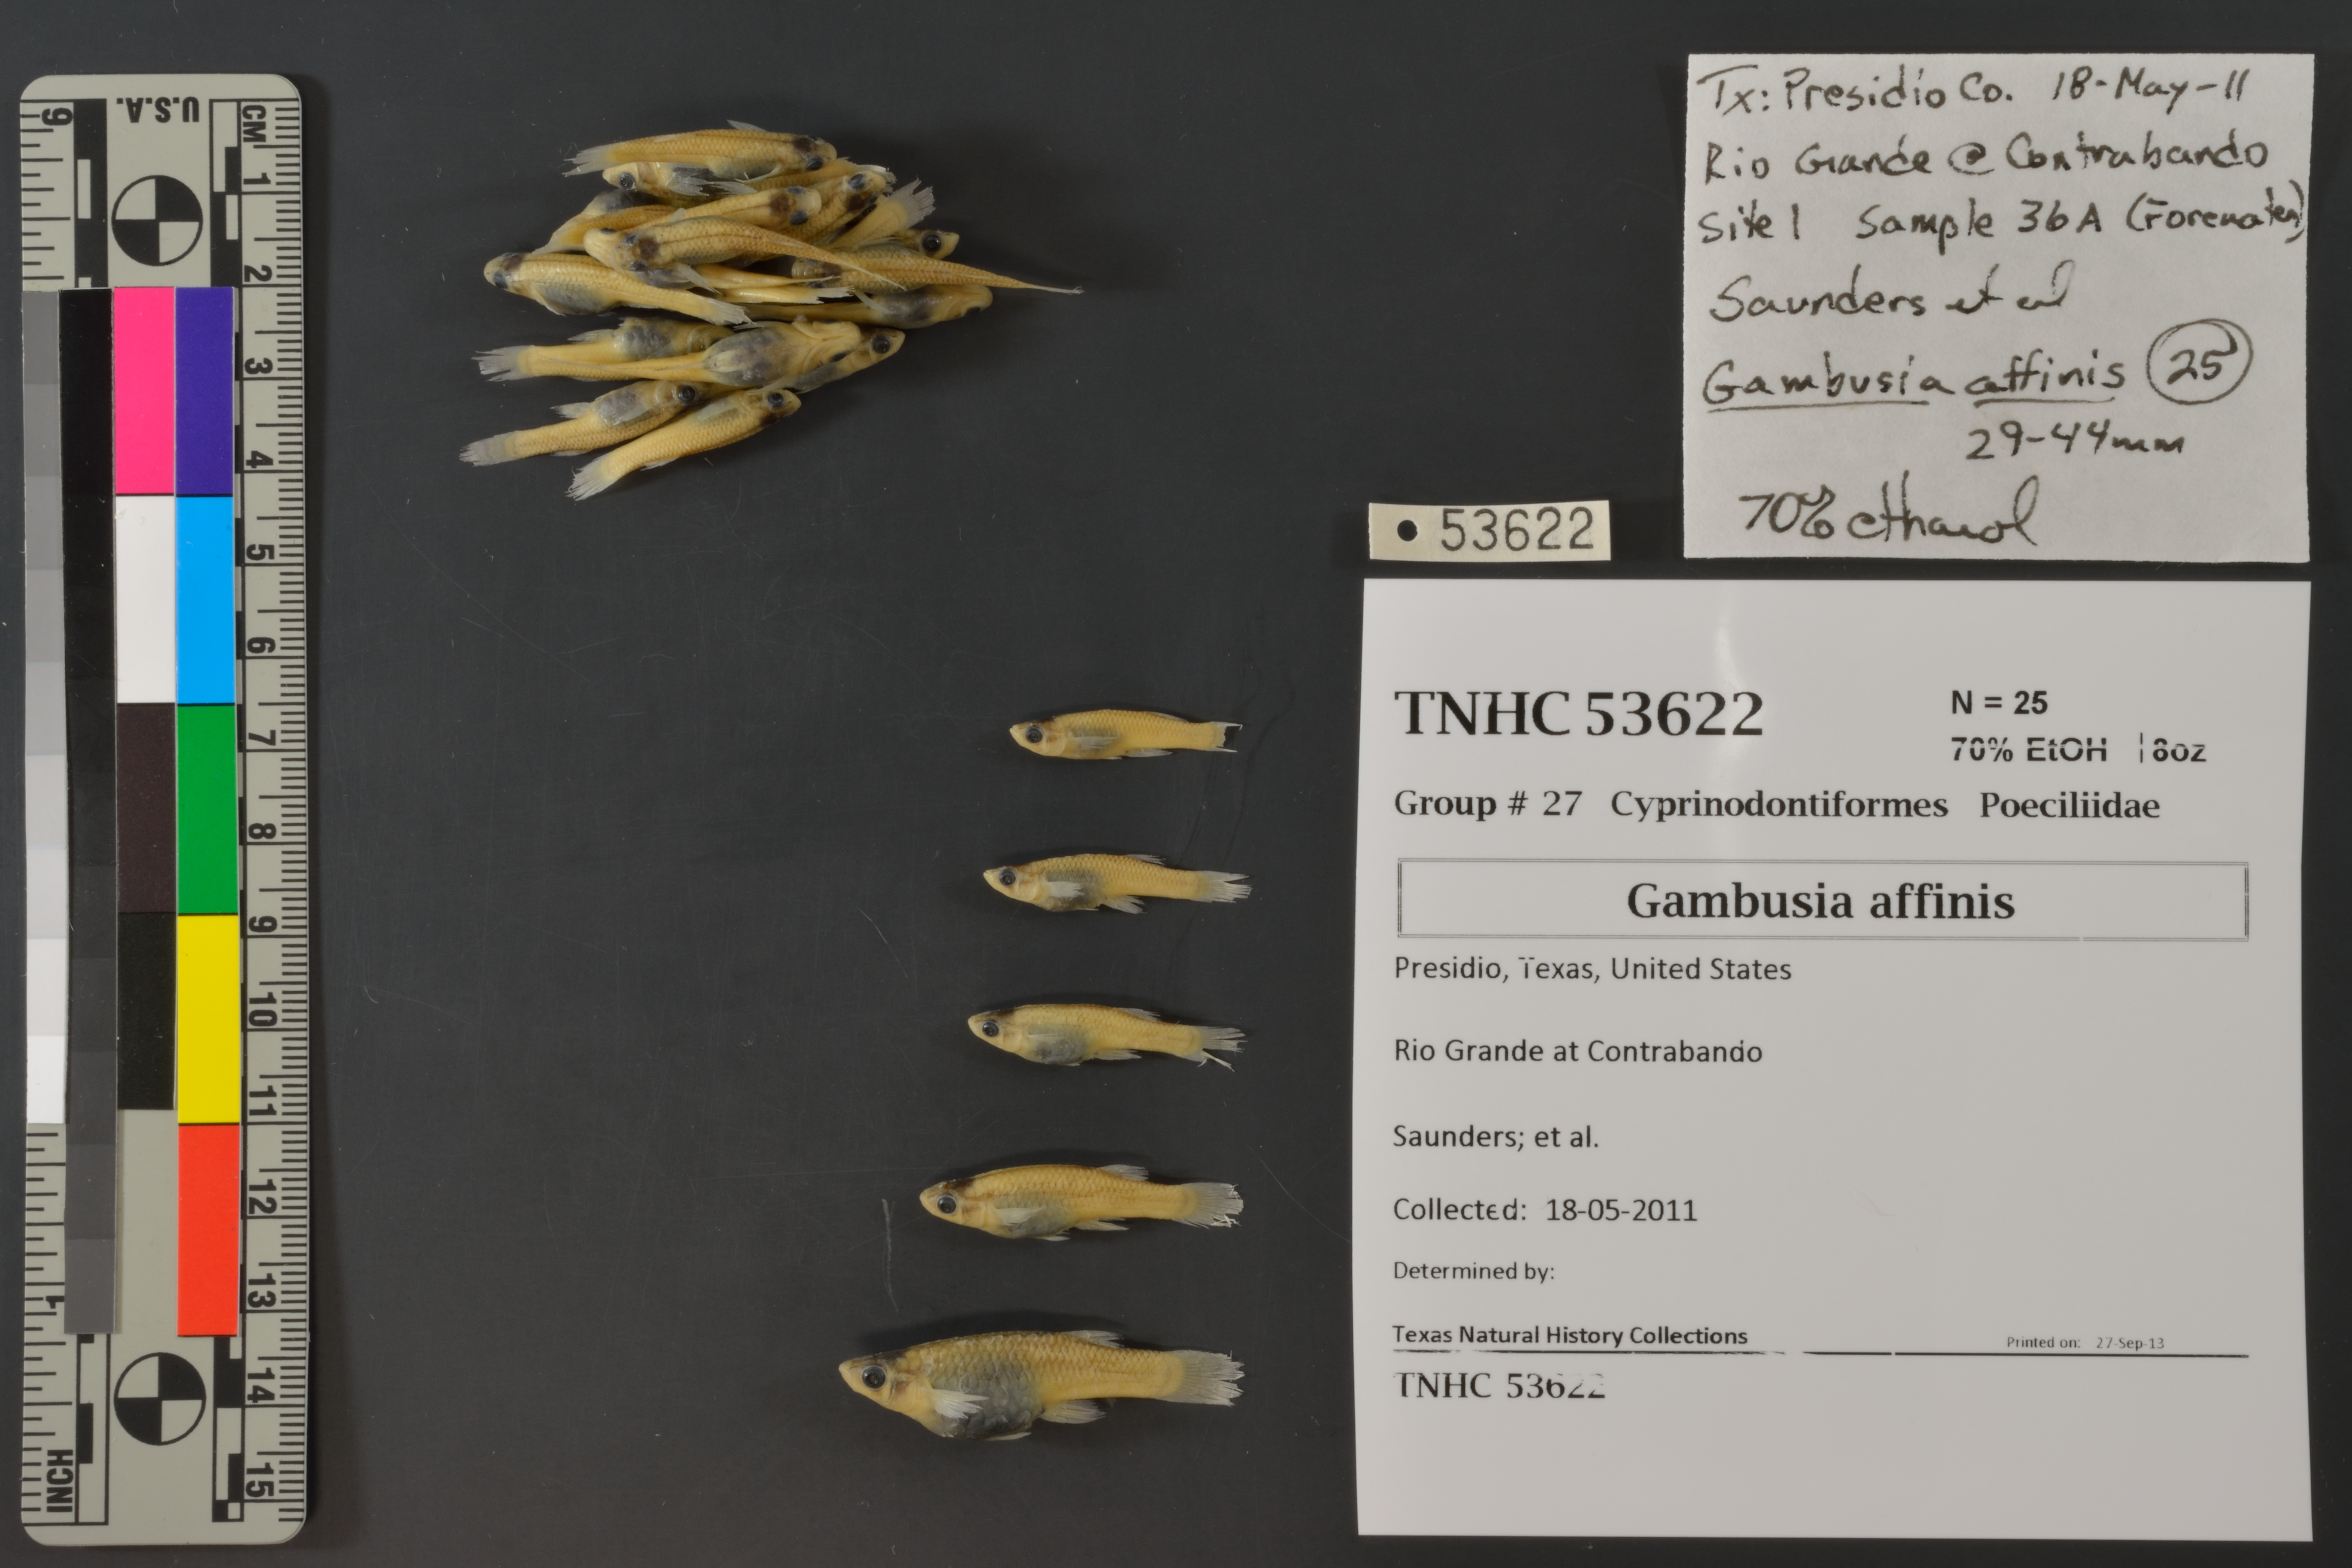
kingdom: Animalia
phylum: Chordata
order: Cyprinodontiformes
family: Poeciliidae
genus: Gambusia
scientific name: Gambusia affinis
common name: Mosquitofish
